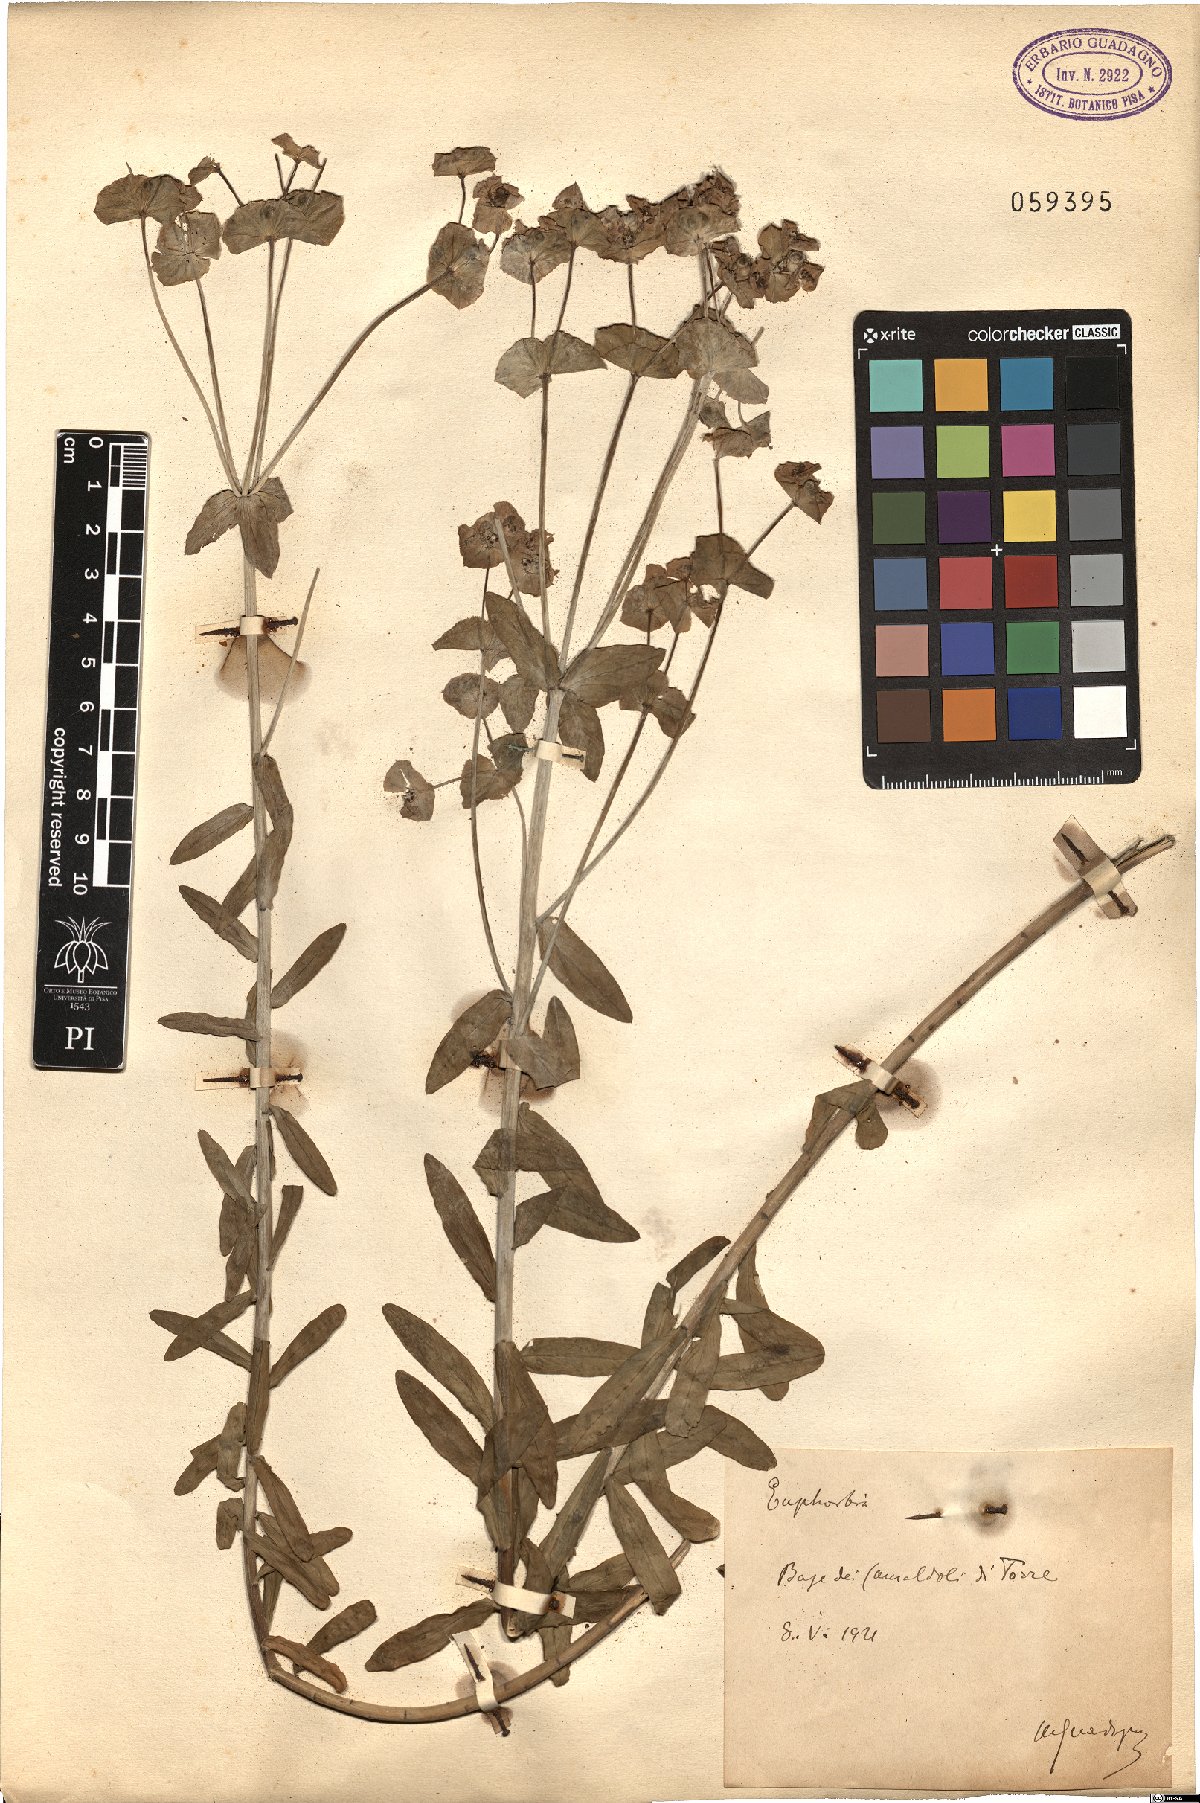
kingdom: Plantae
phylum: Tracheophyta
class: Magnoliopsida
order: Malpighiales
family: Euphorbiaceae
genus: Euphorbia
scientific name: Euphorbia
